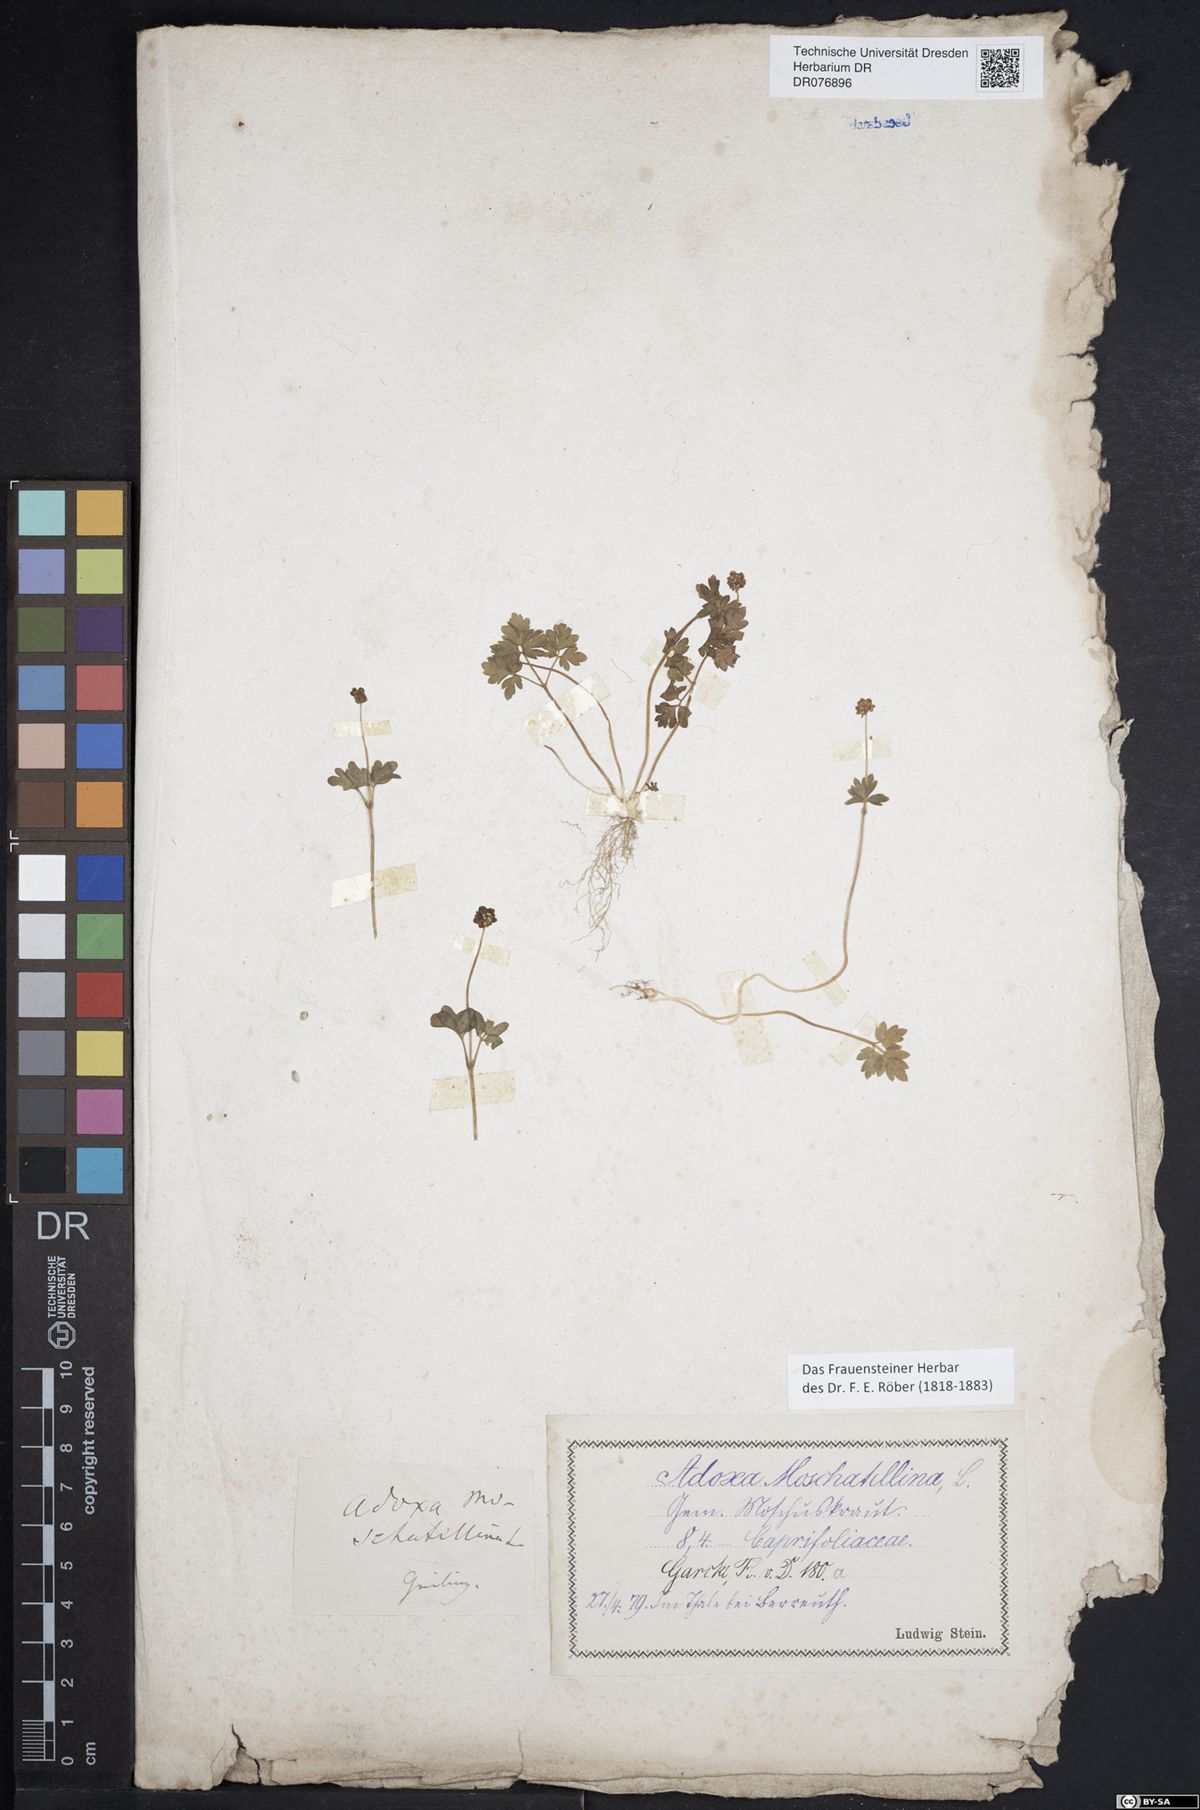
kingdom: Plantae
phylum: Tracheophyta
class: Magnoliopsida
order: Dipsacales
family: Viburnaceae
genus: Adoxa
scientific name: Adoxa moschatellina
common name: Moschatel
